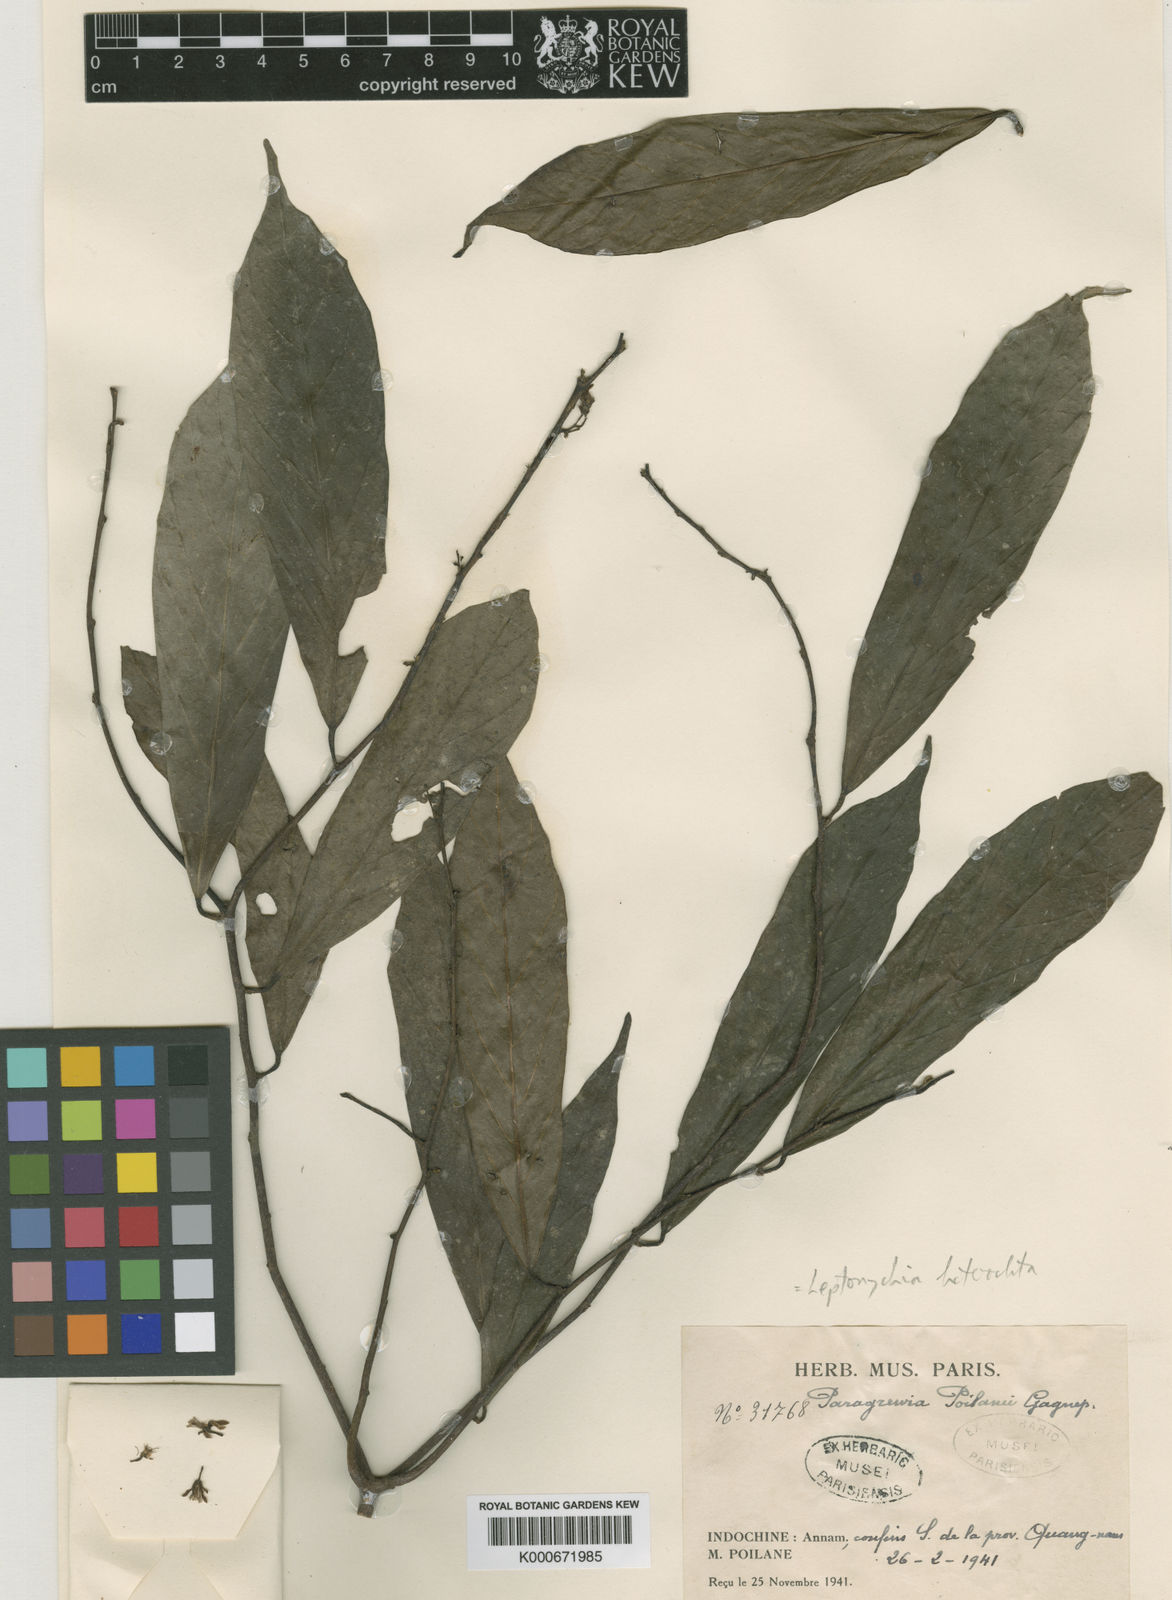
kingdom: Plantae
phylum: Tracheophyta
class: Magnoliopsida
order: Malvales
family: Malvaceae
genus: Leptonychia
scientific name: Leptonychia
